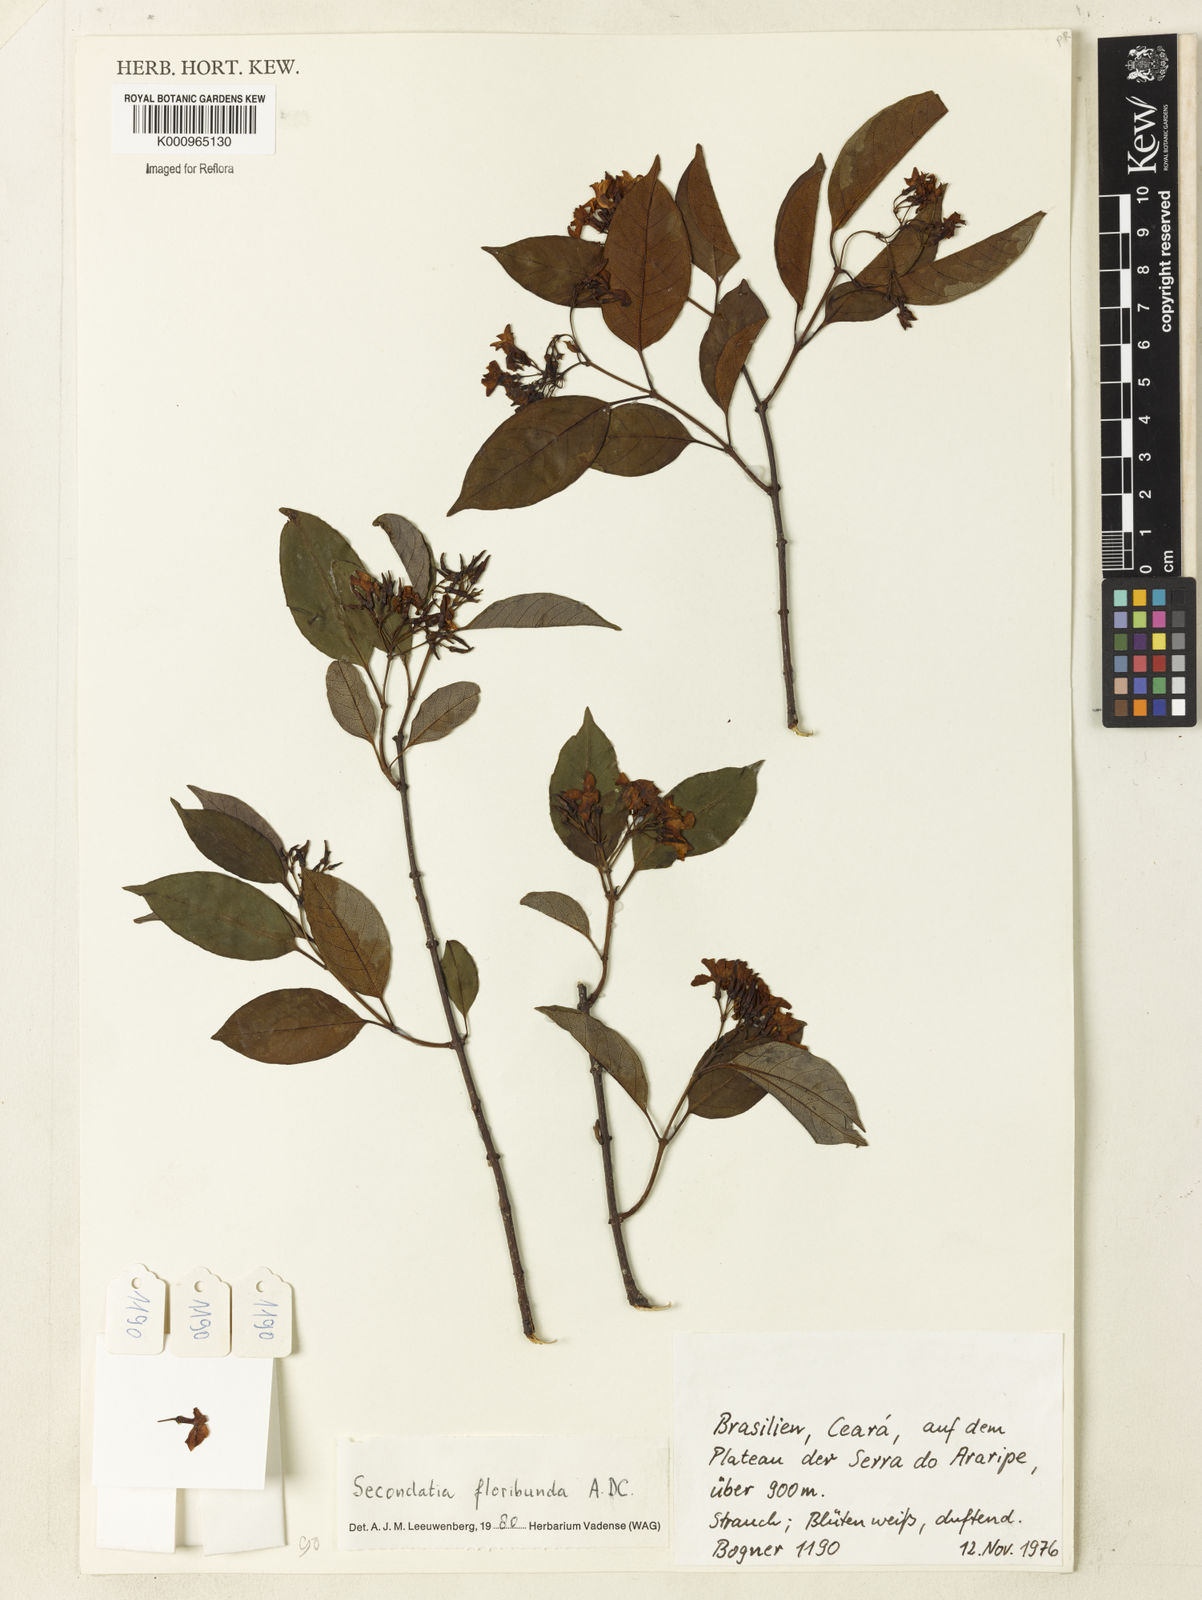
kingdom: Plantae
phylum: Tracheophyta
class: Magnoliopsida
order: Gentianales
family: Apocynaceae
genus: Secondatia
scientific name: Secondatia floribunda
